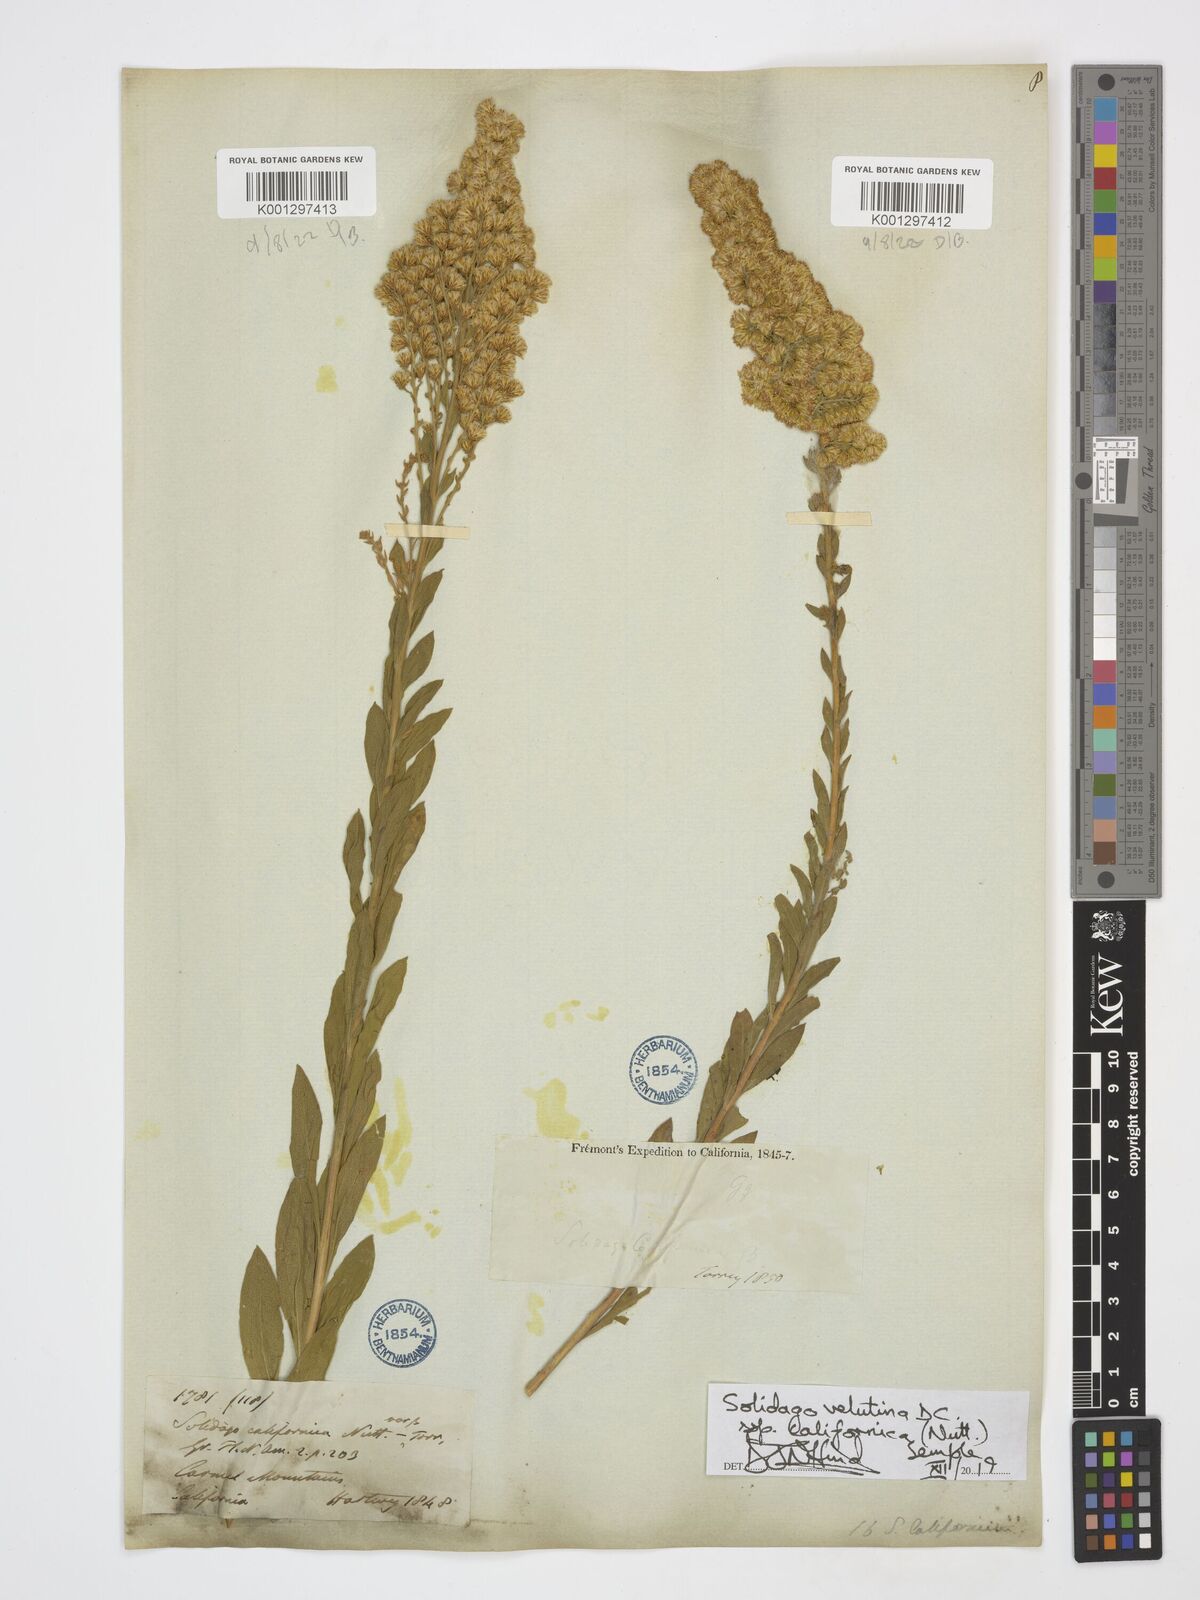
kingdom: Plantae
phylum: Tracheophyta
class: Magnoliopsida
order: Asterales
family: Asteraceae
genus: Solidago
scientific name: Solidago velutina
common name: Three-nerve goldenrod
